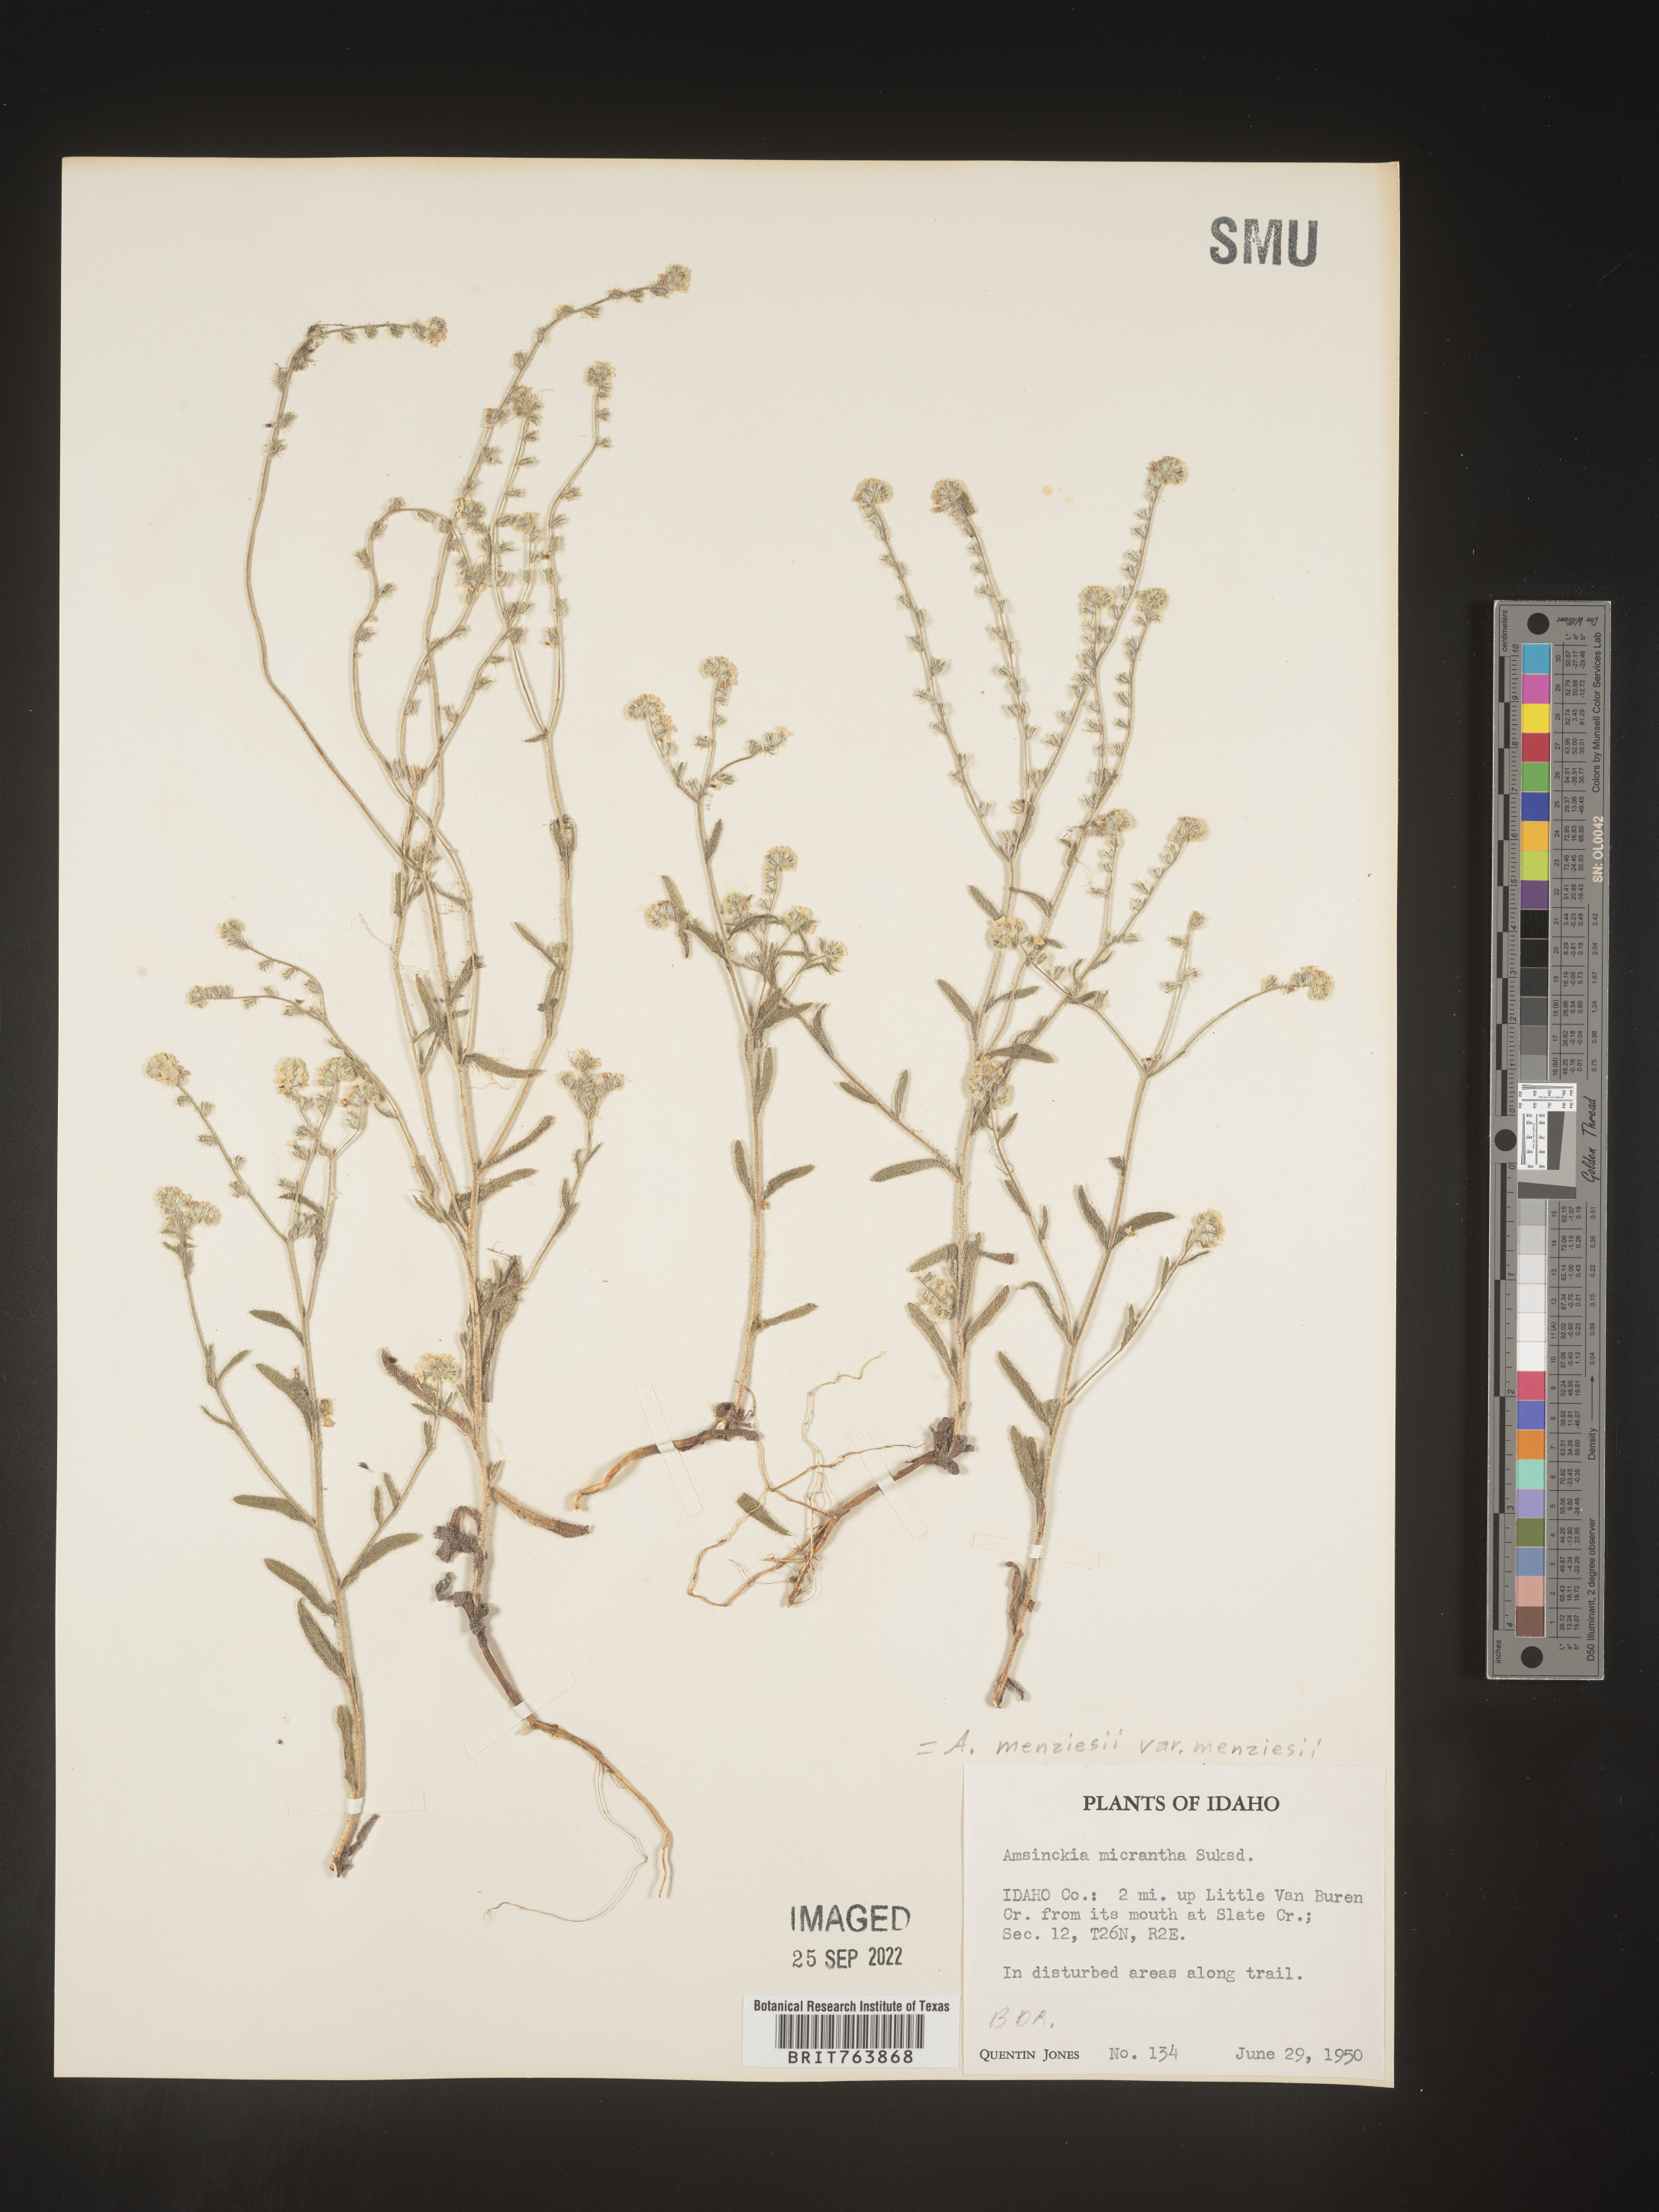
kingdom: Plantae
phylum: Tracheophyta
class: Magnoliopsida
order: Boraginales
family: Boraginaceae
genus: Amsinckia
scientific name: Amsinckia menziesii
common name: Menzies' fiddleneck
